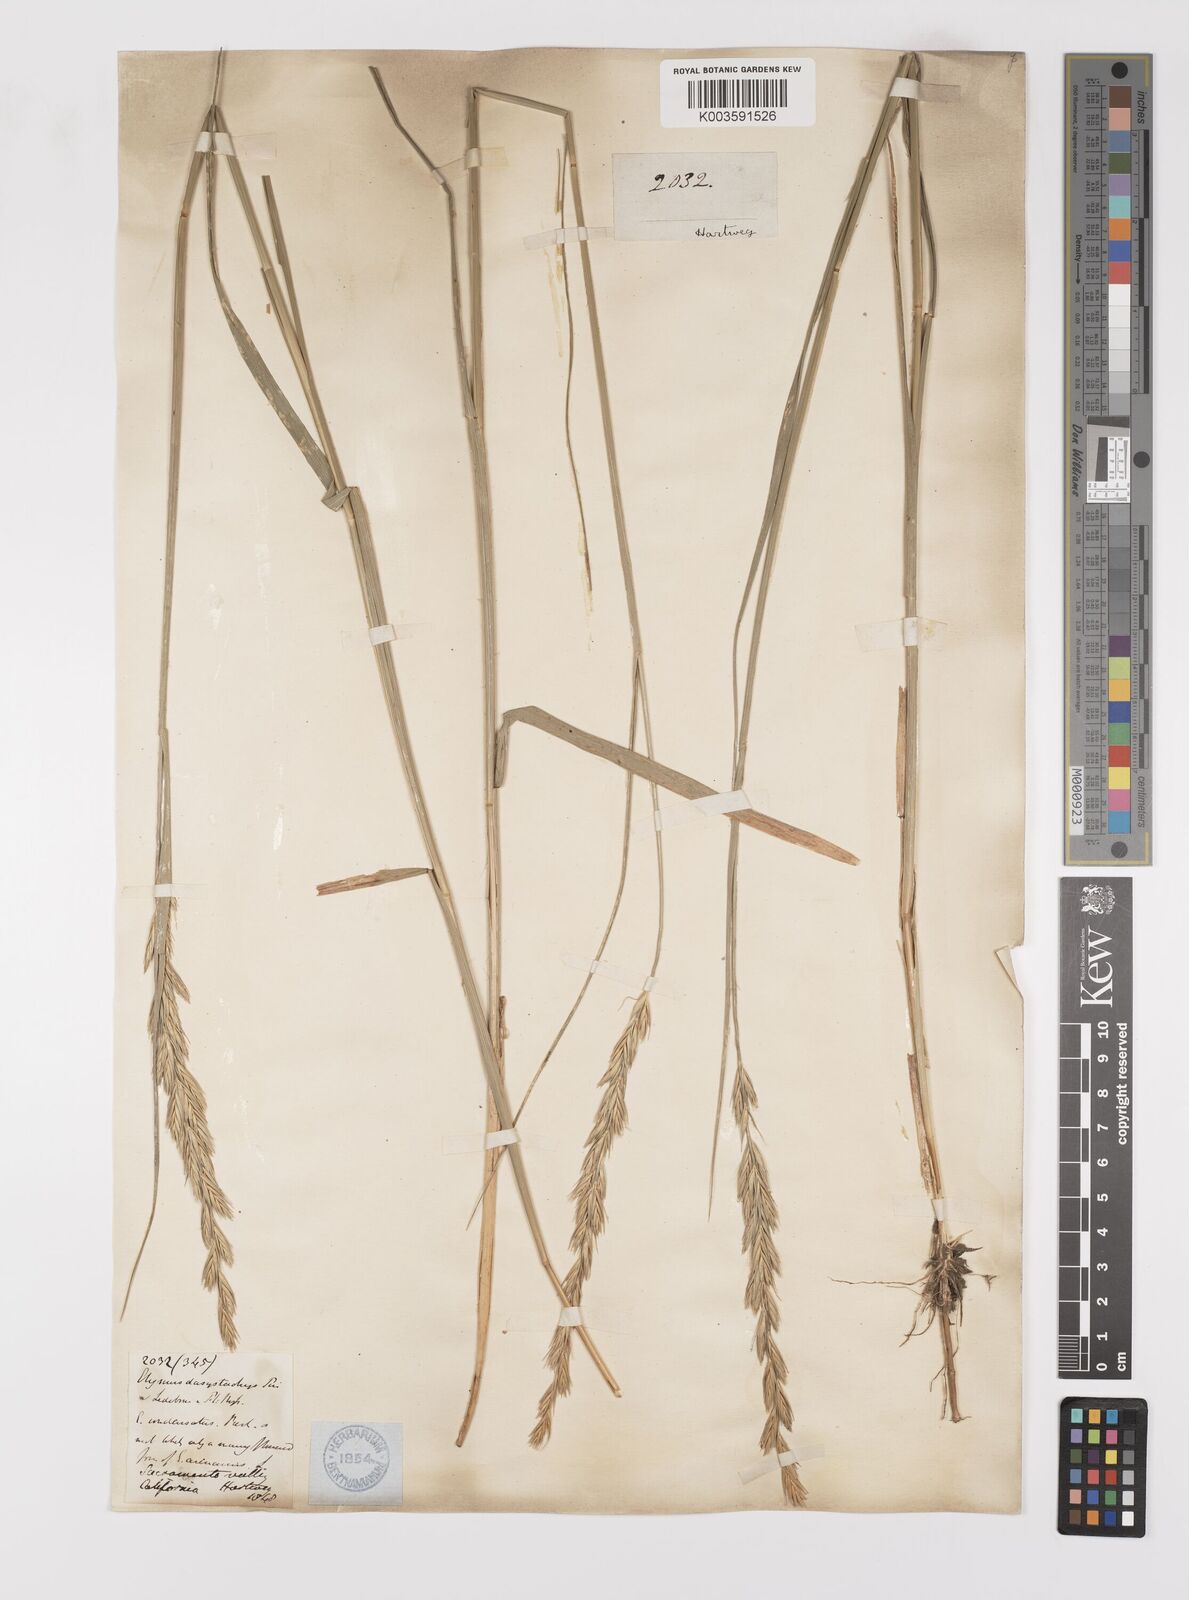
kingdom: Plantae
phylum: Tracheophyta
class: Liliopsida
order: Poales
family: Poaceae
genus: Leymus
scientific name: Leymus condensatus
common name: Giant wild rye
